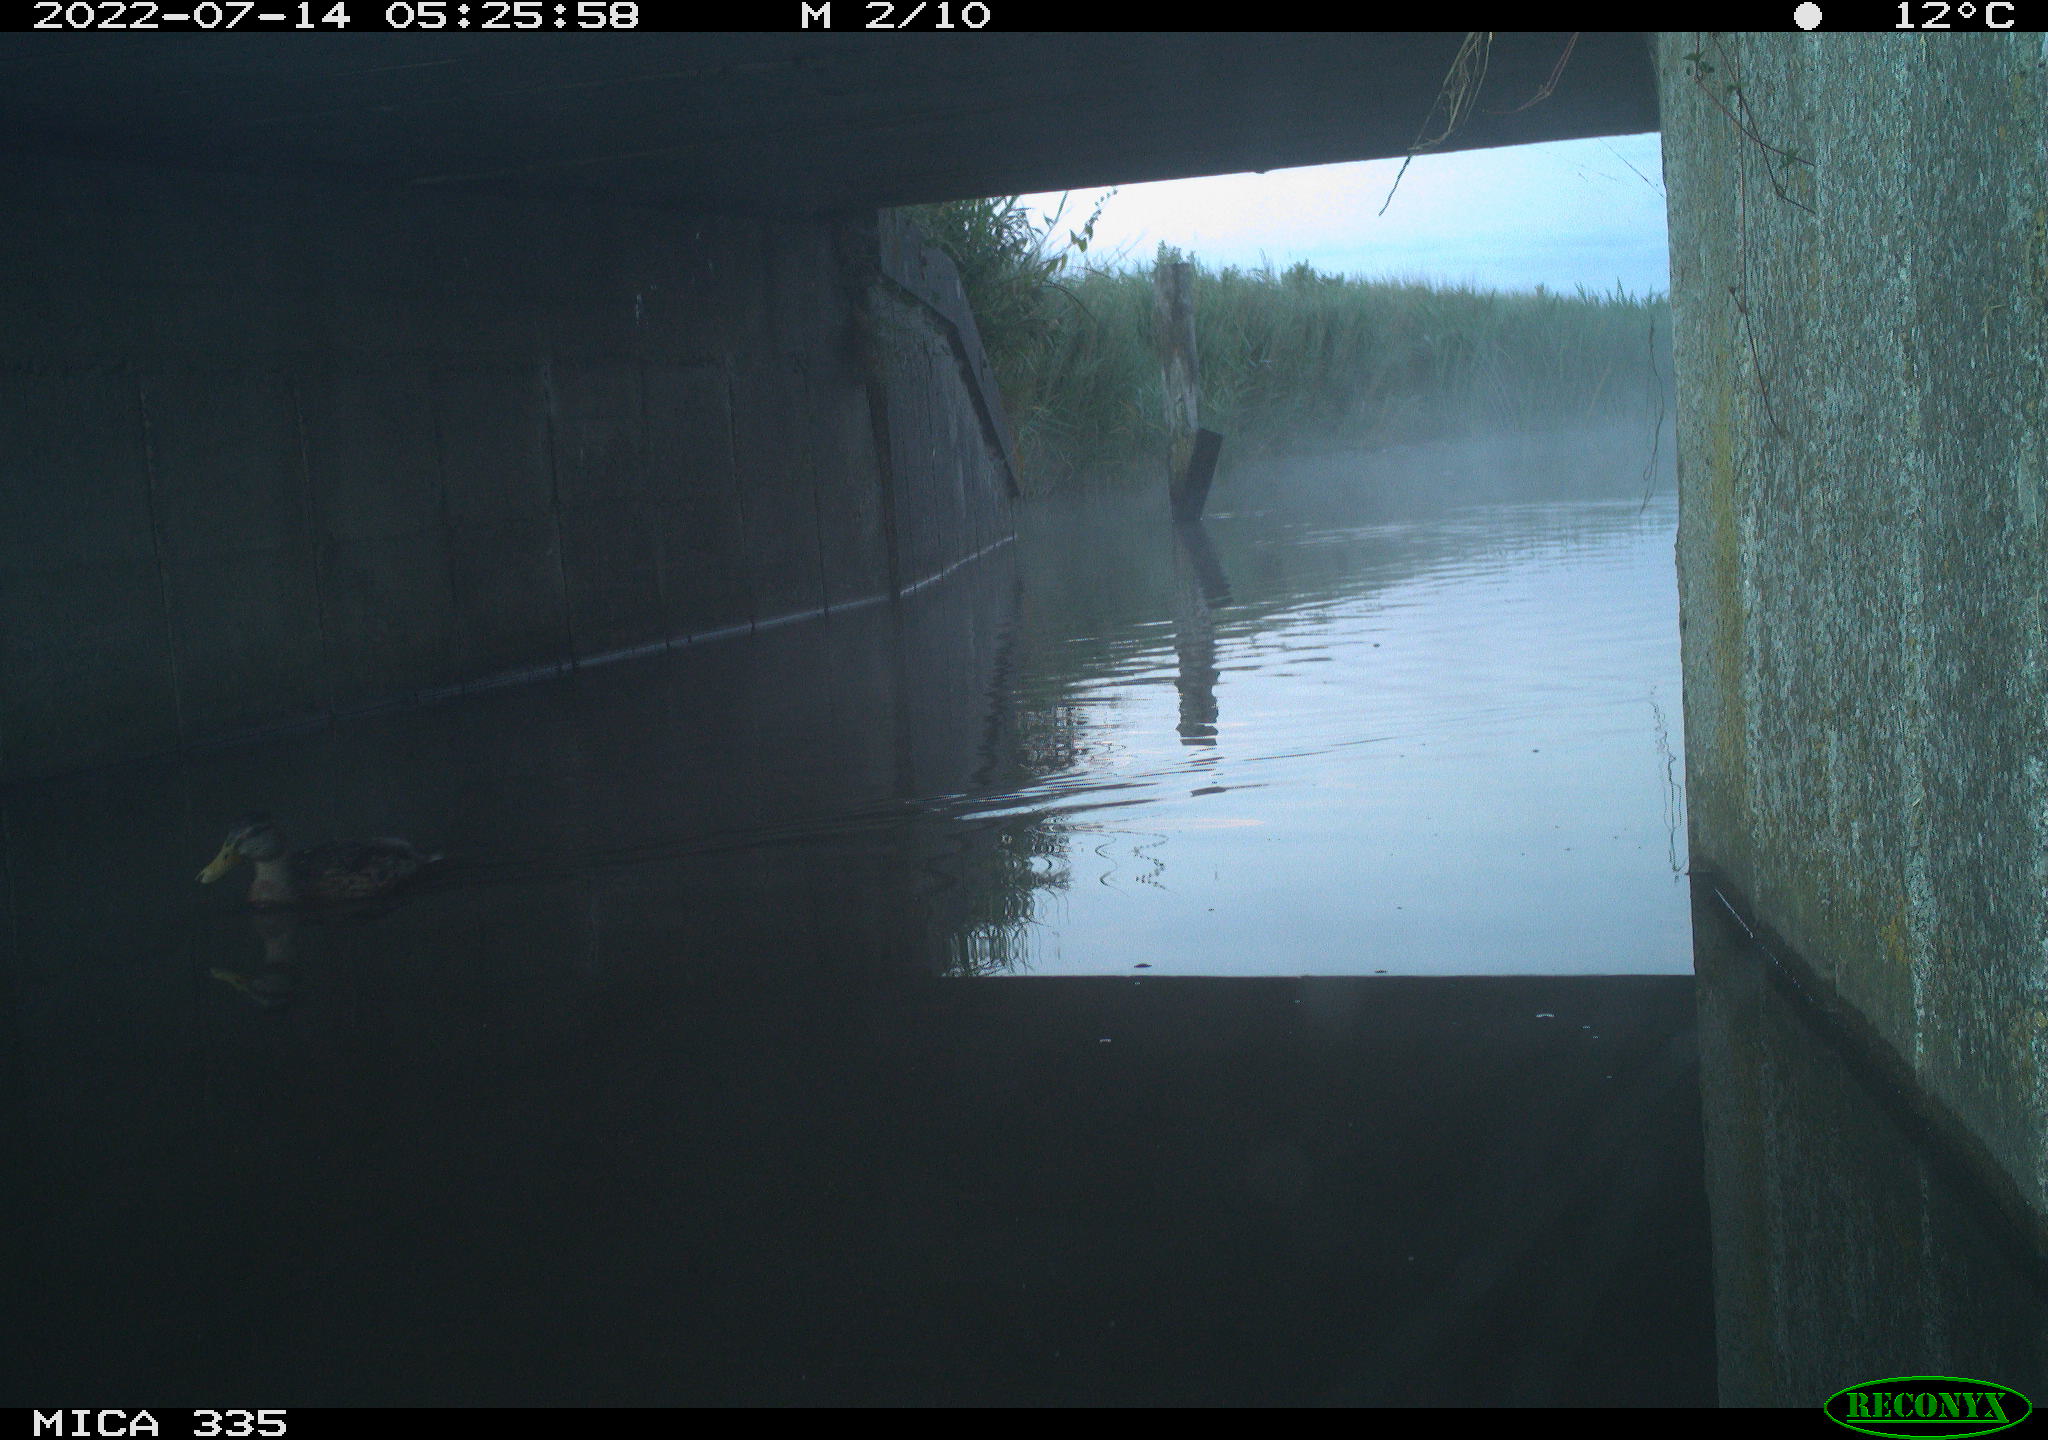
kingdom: Animalia
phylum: Chordata
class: Aves
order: Anseriformes
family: Anatidae
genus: Anas
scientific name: Anas platyrhynchos
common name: Mallard
